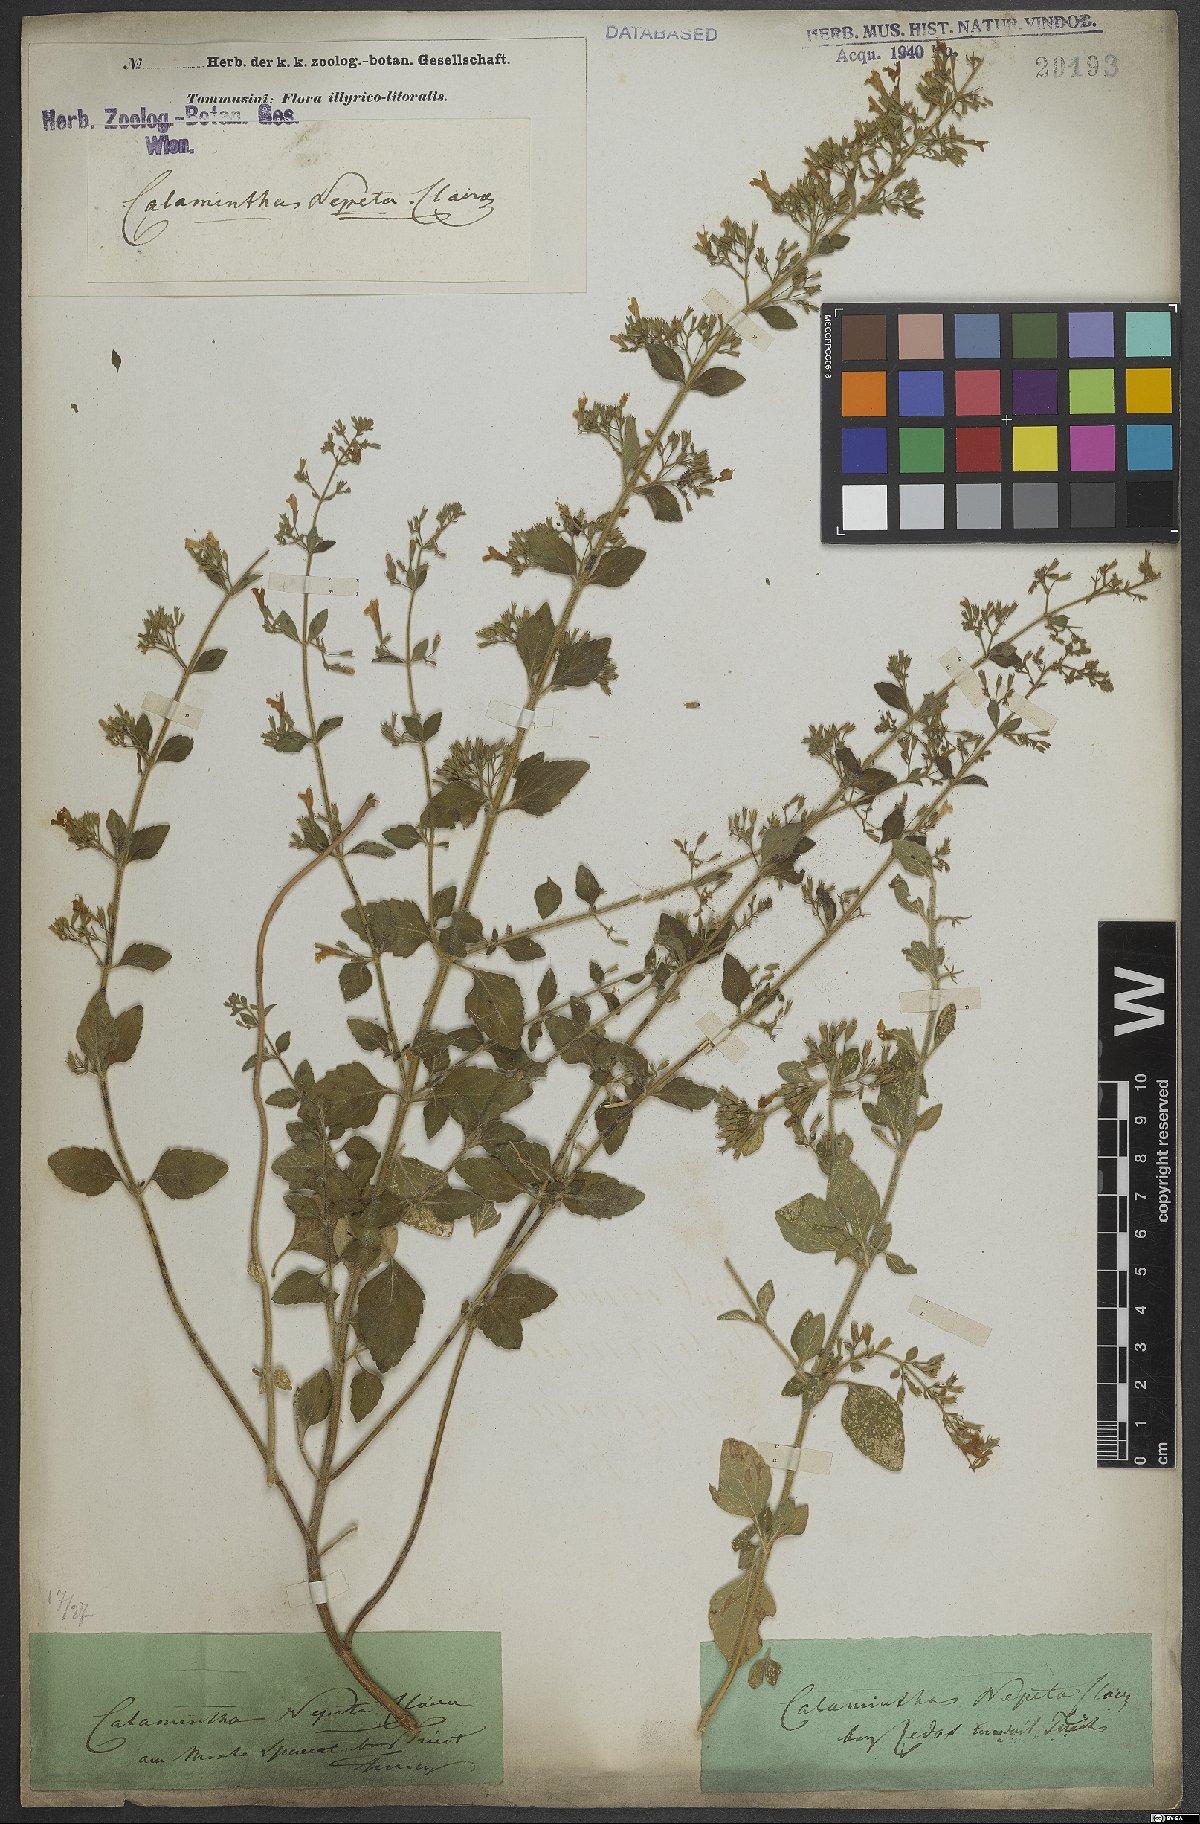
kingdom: Plantae
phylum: Tracheophyta
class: Magnoliopsida
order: Lamiales
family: Lamiaceae
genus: Clinopodium
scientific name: Clinopodium nepeta
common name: Lesser calamint
